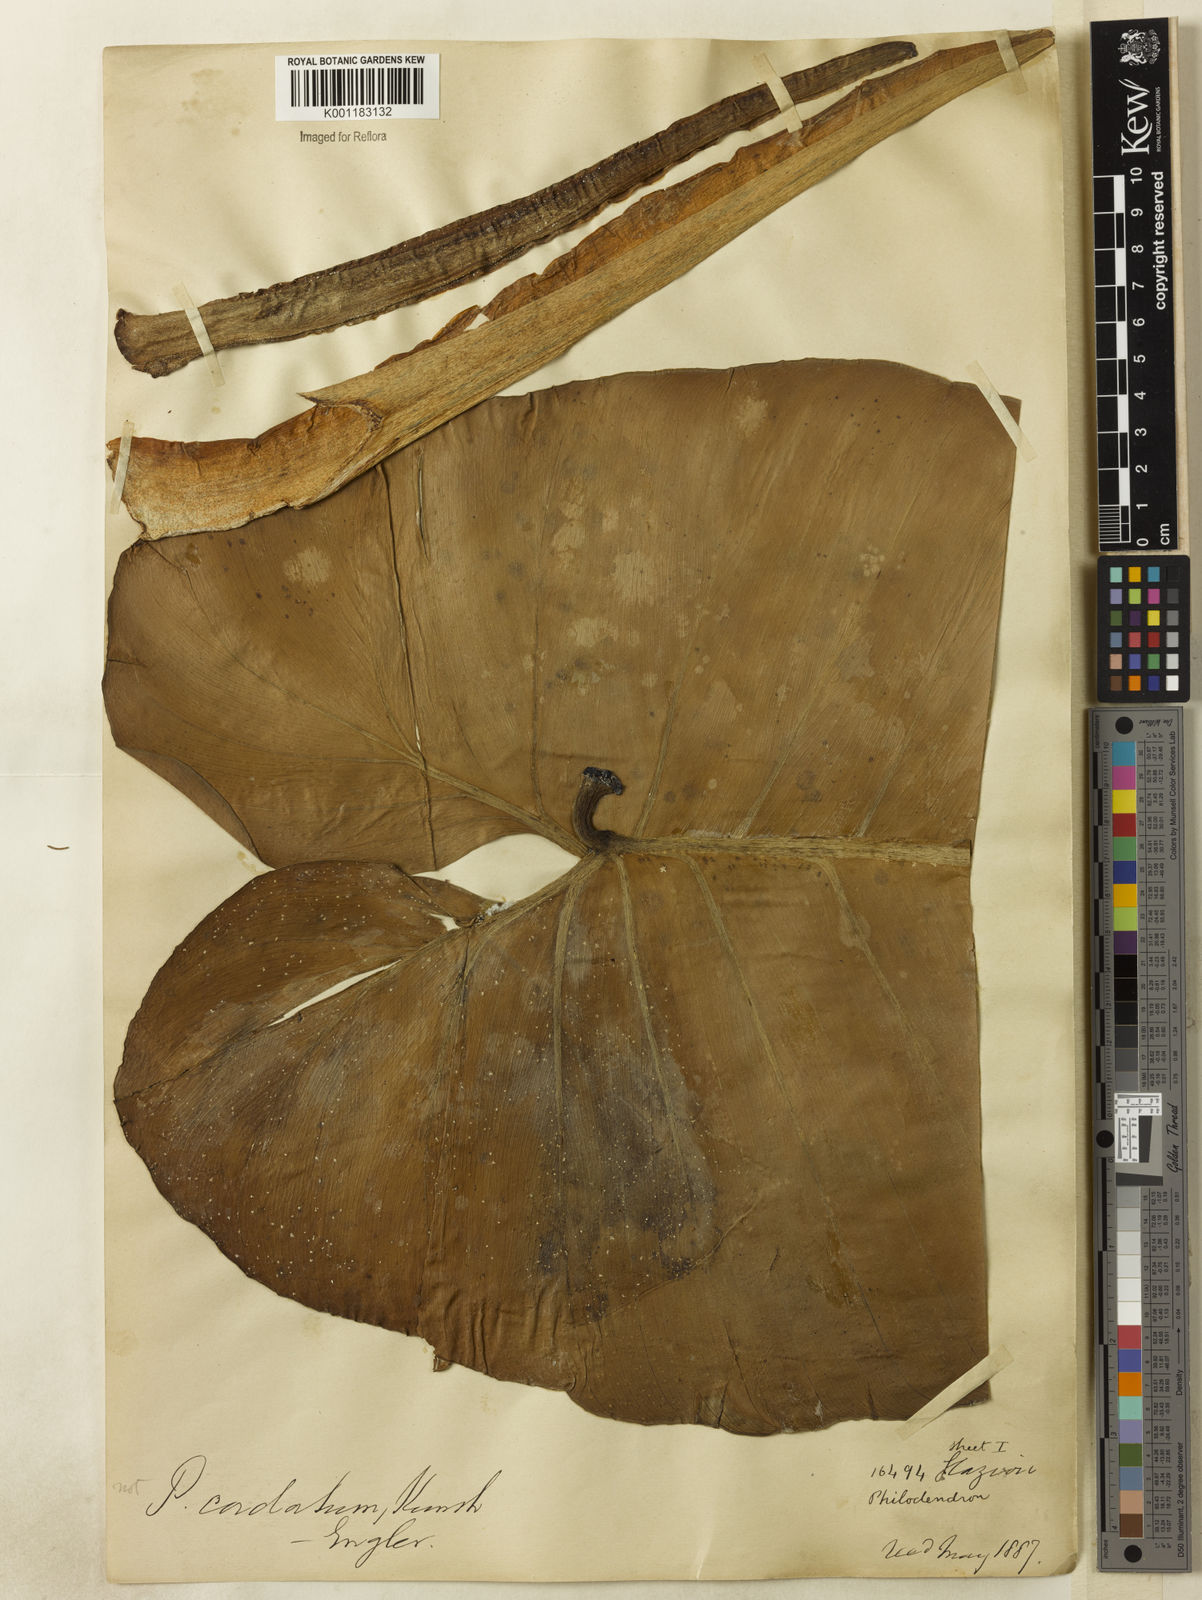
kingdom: Plantae
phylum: Tracheophyta
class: Liliopsida
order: Alismatales
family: Araceae
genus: Philodendron
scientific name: Philodendron cordatum
